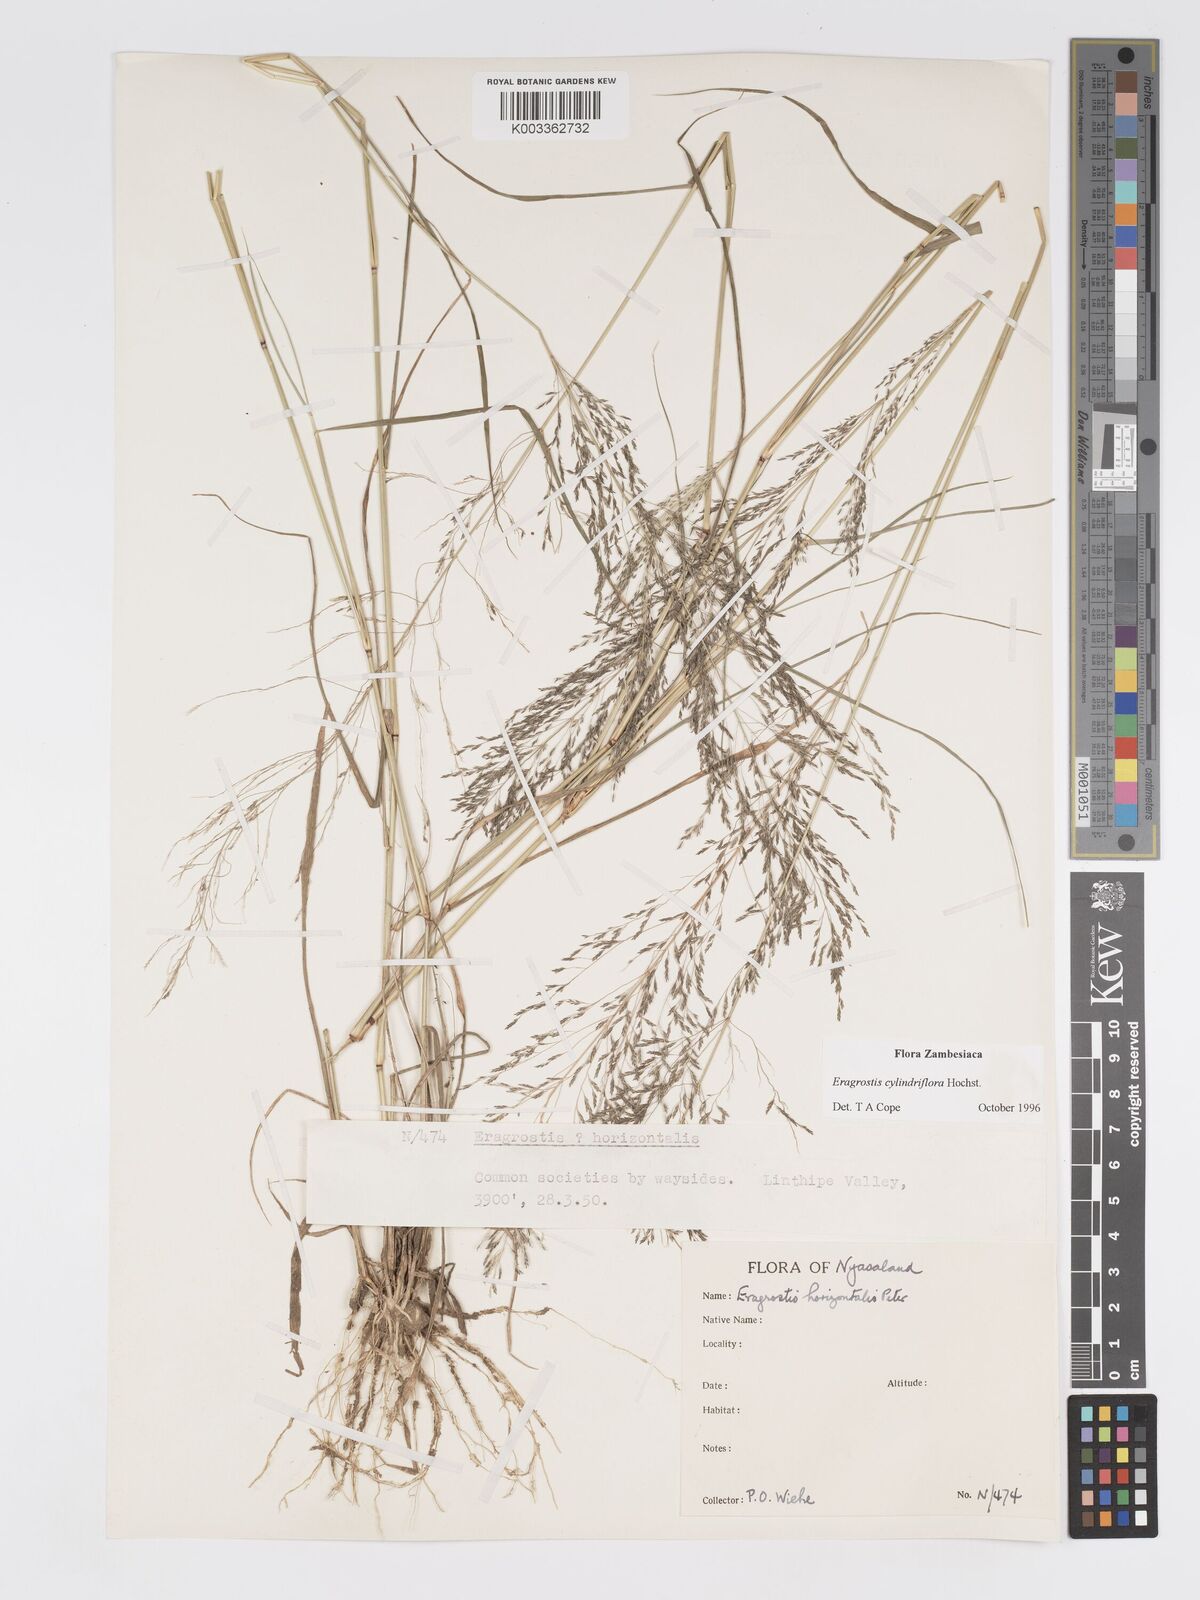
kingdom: Plantae
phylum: Tracheophyta
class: Liliopsida
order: Poales
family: Poaceae
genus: Eragrostis
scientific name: Eragrostis cylindriflora
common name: Cylinderflower lovegrass
